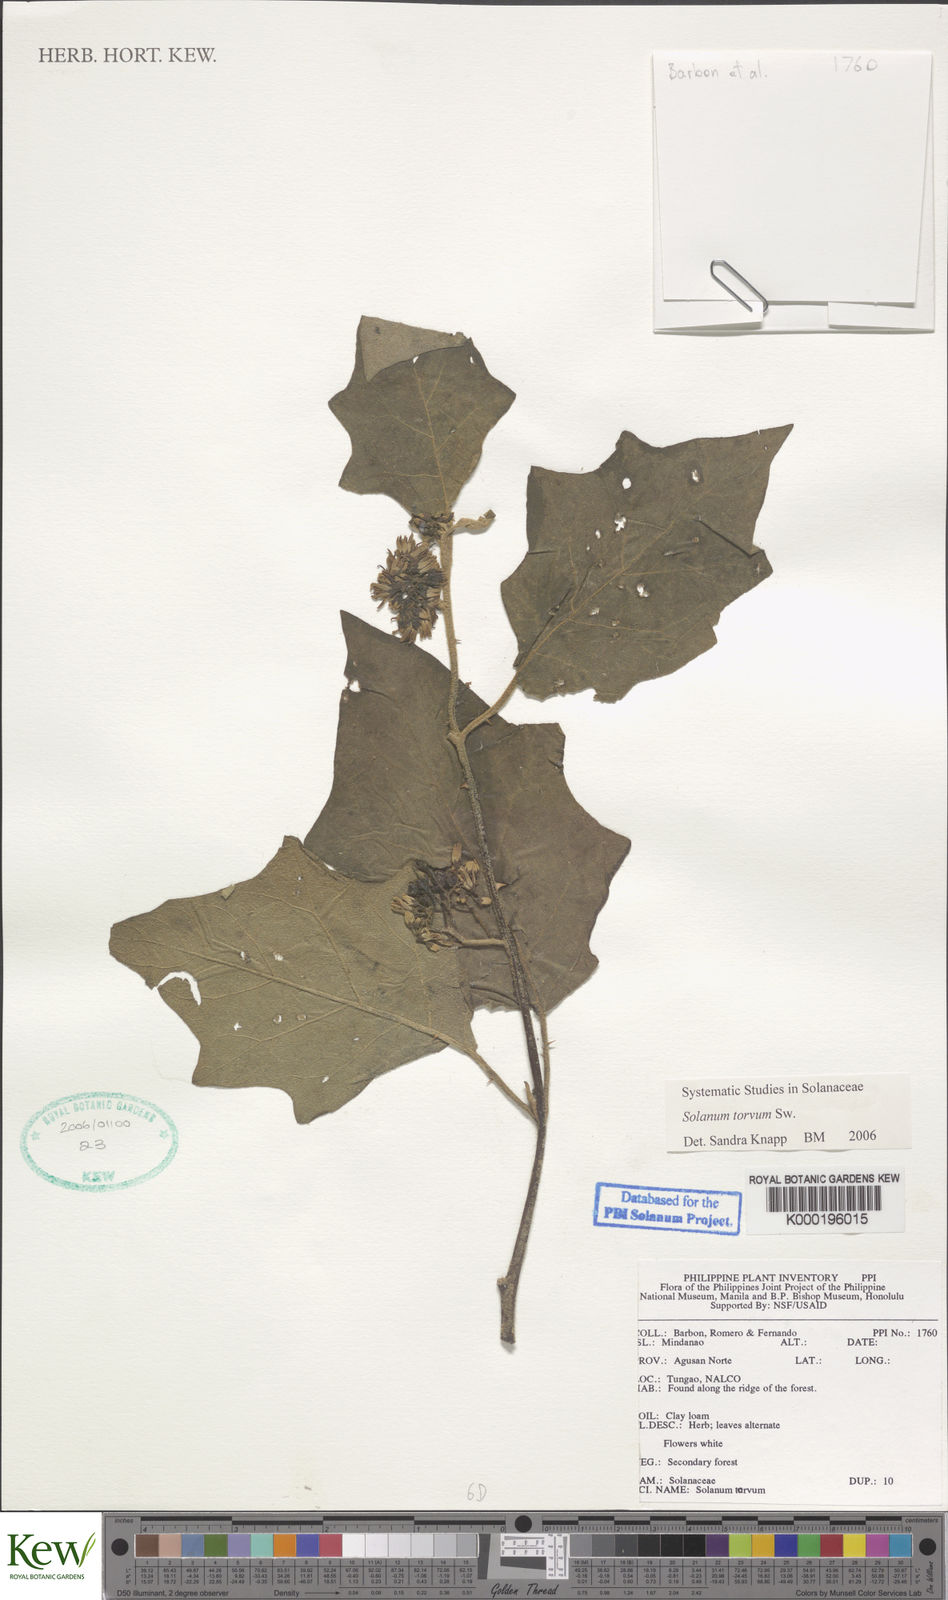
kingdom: Plantae
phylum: Tracheophyta
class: Magnoliopsida
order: Solanales
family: Solanaceae
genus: Solanum
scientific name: Solanum torvum
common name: Turkey berry
